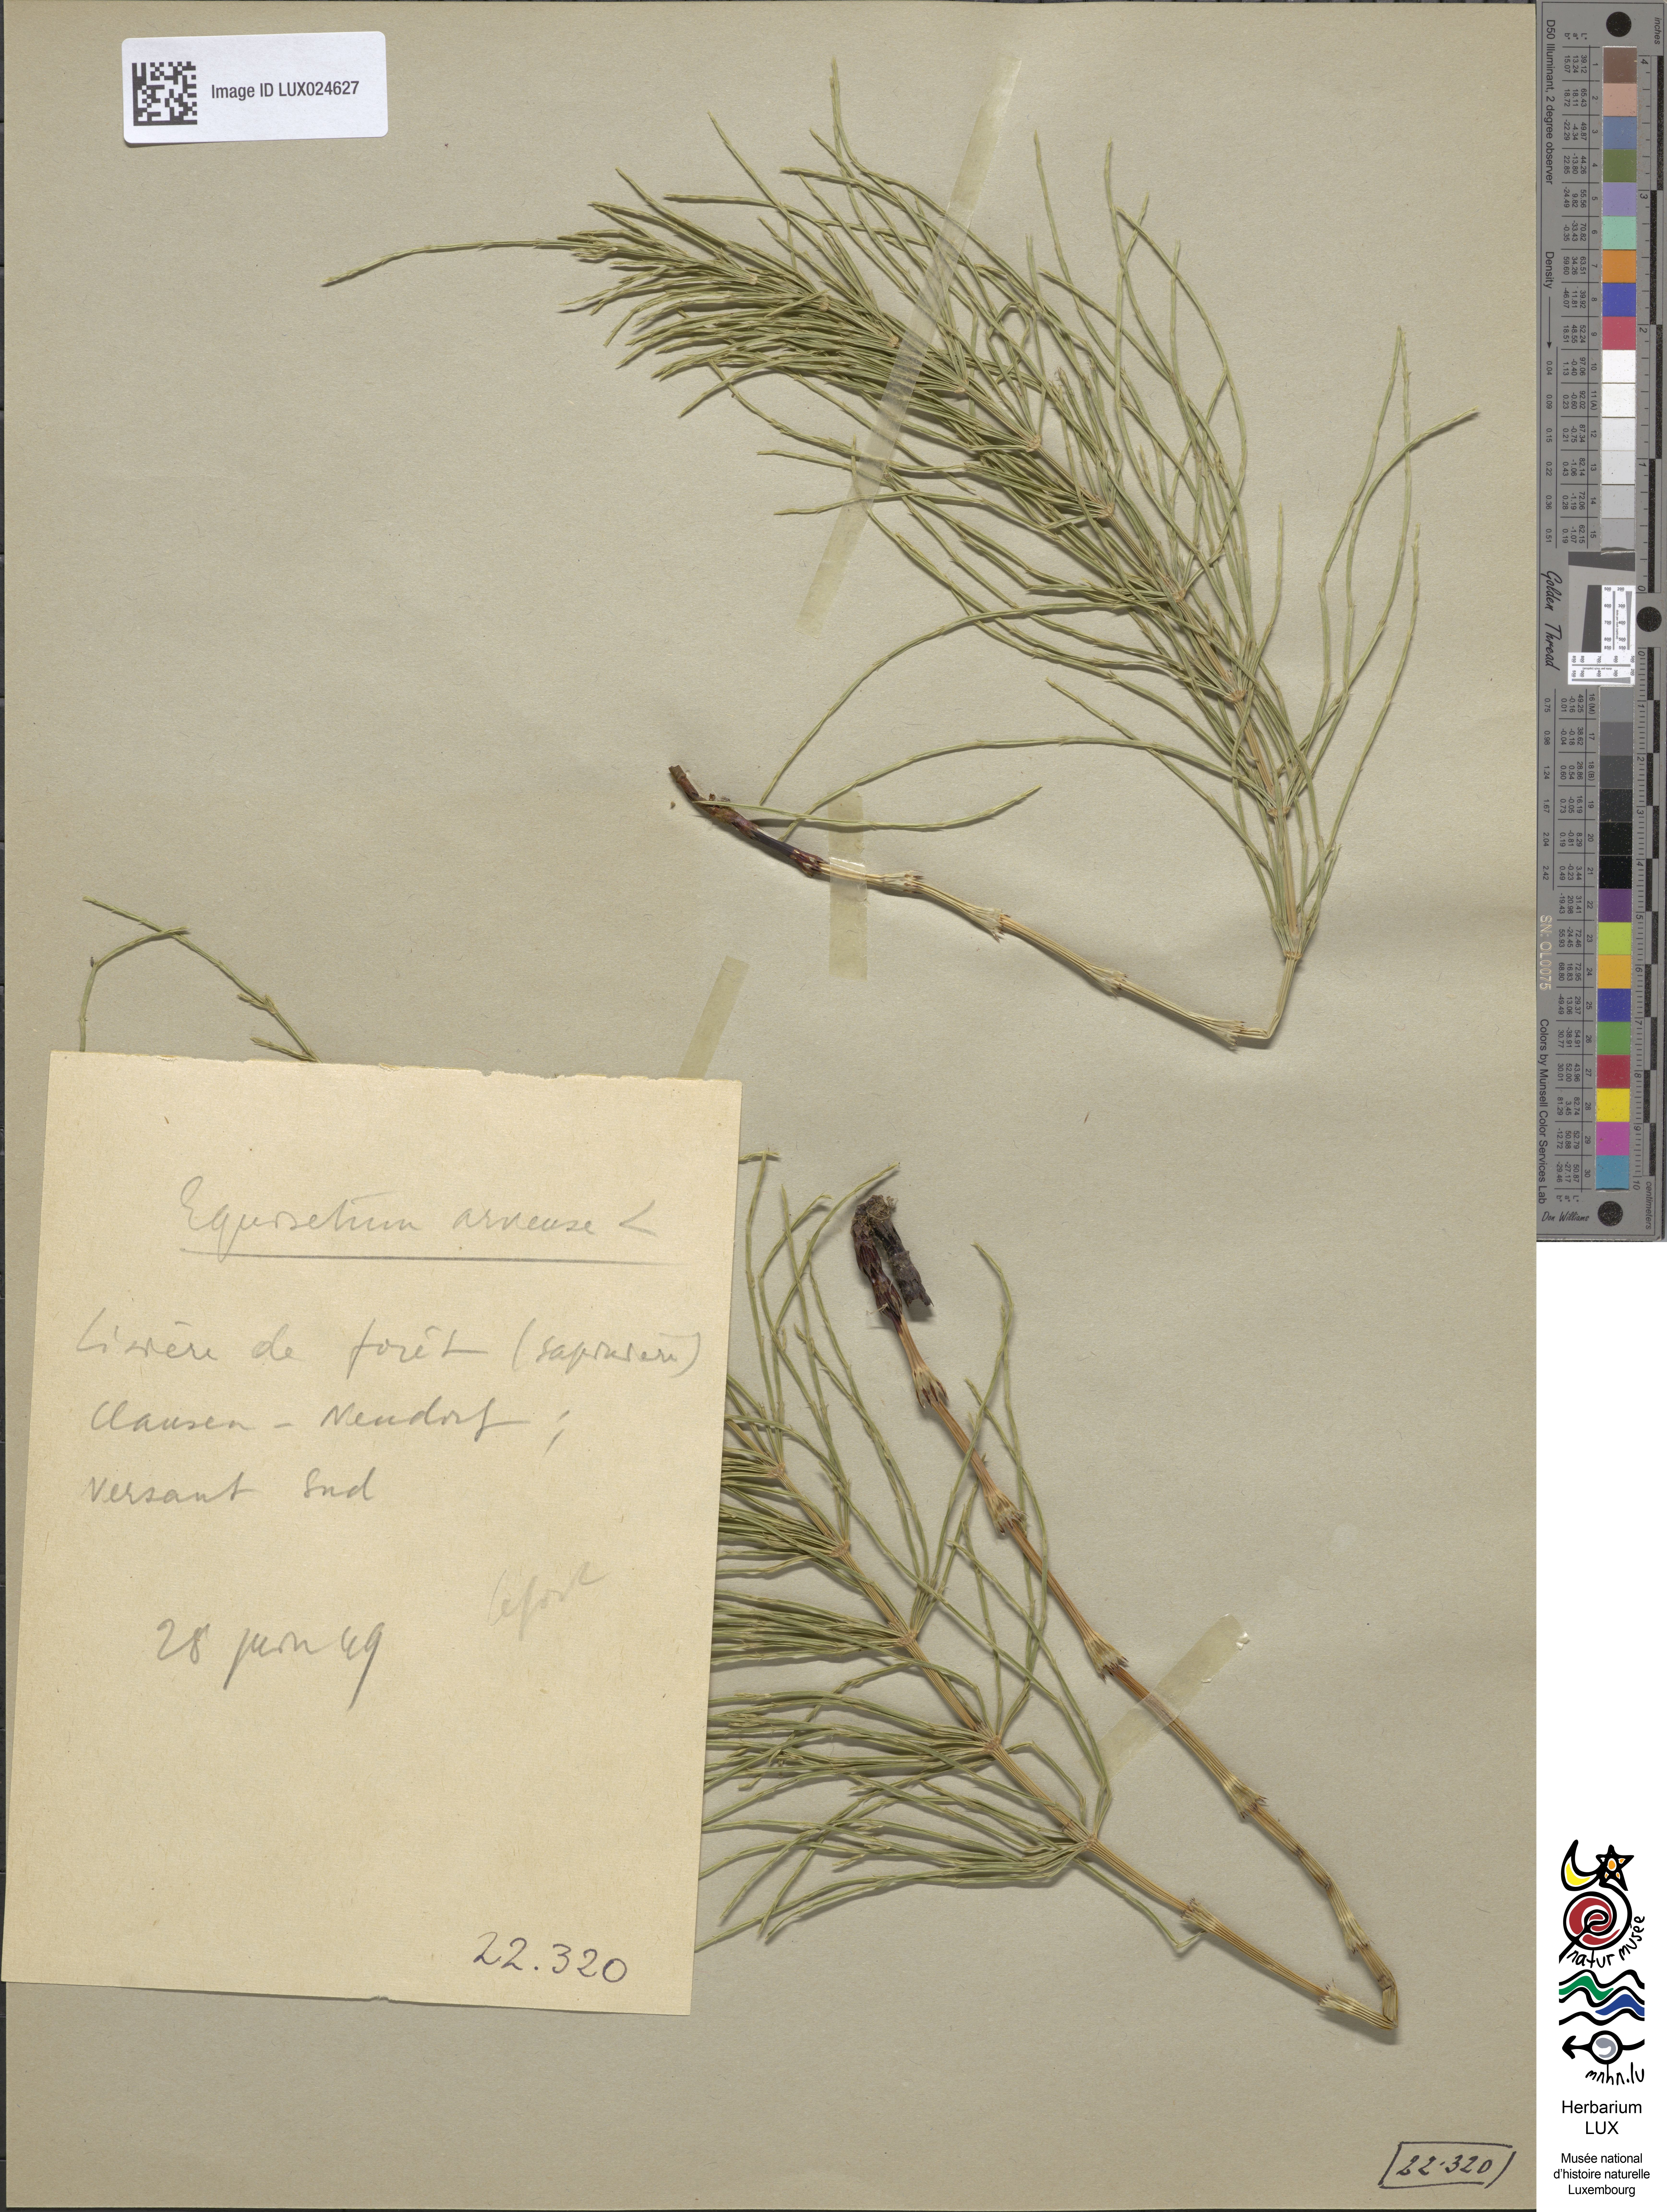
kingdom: Plantae
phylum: Tracheophyta
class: Polypodiopsida
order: Equisetales
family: Equisetaceae
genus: Equisetum
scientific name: Equisetum arvense
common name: Field horsetail
